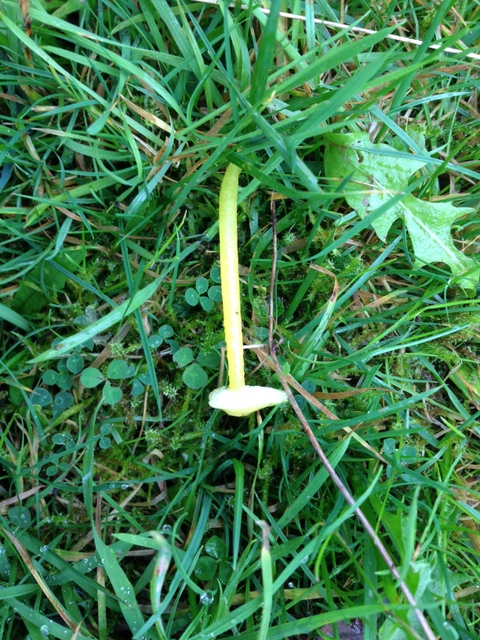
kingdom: Fungi
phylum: Basidiomycota
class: Agaricomycetes
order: Agaricales
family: Hygrophoraceae
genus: Hygrocybe
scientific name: Hygrocybe glutinipes
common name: slimstokket vokshat
